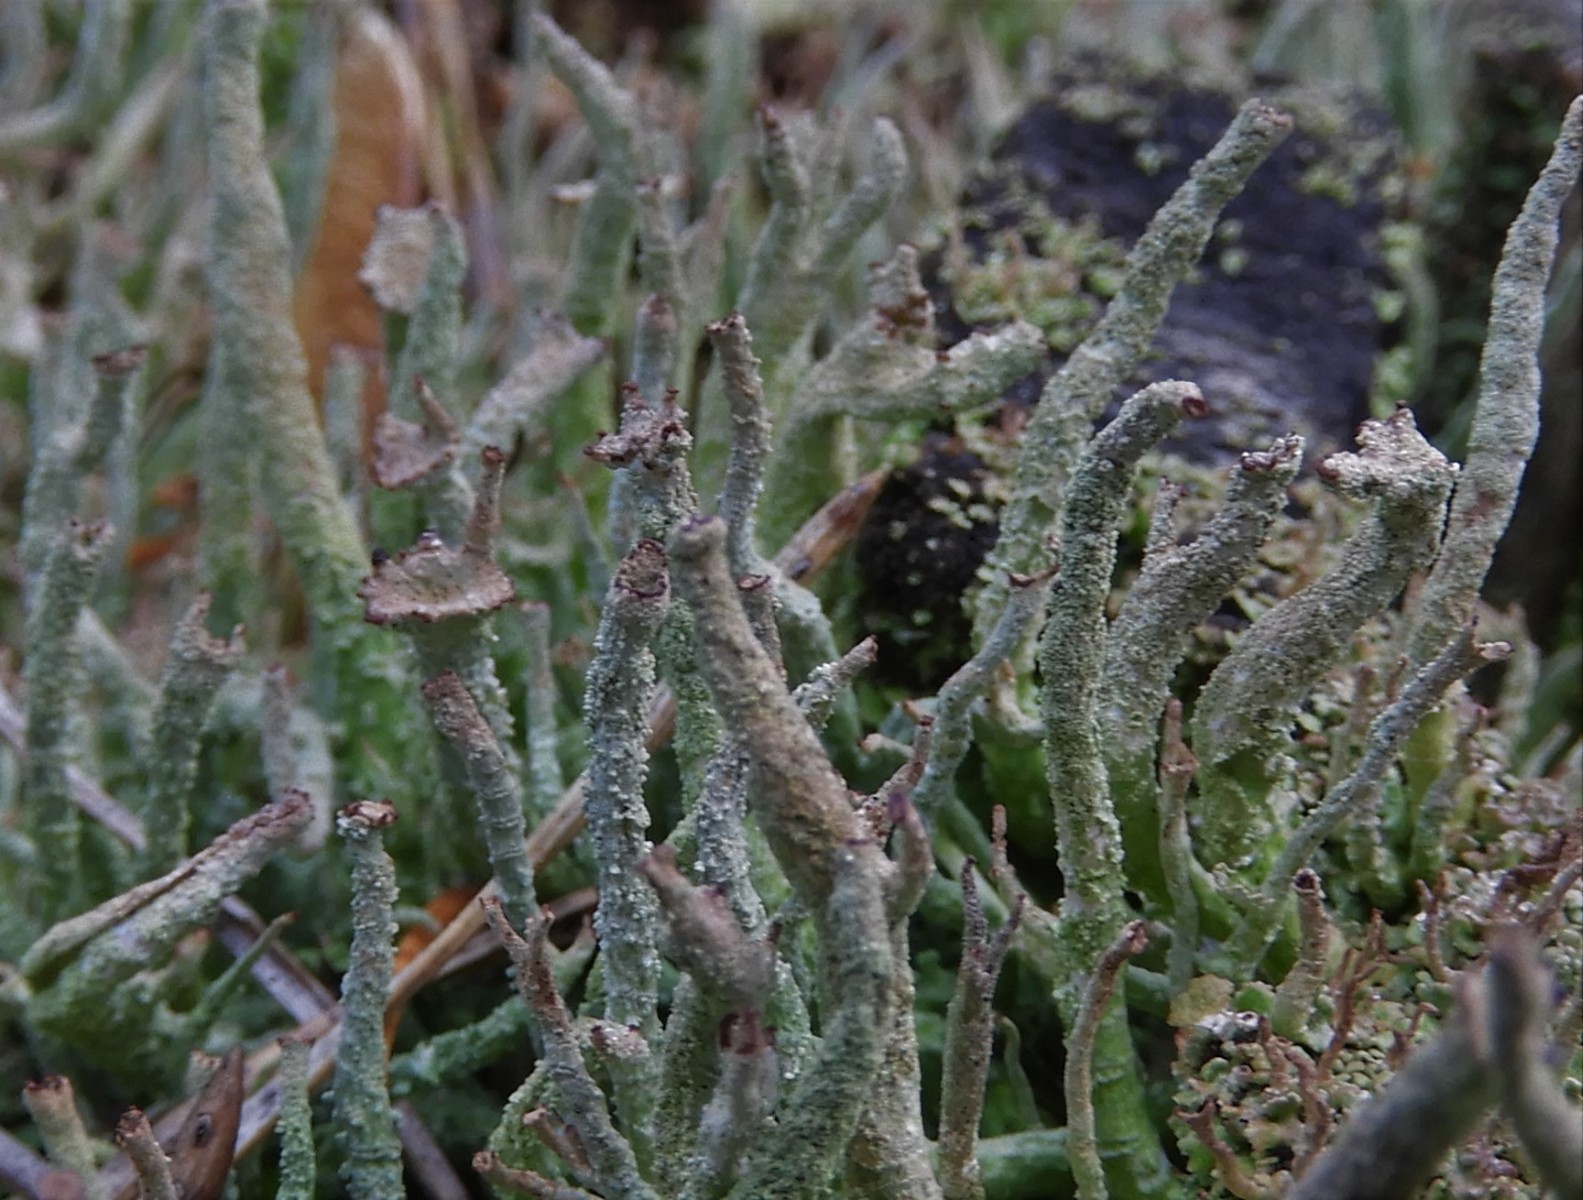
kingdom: Fungi
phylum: Ascomycota
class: Lecanoromycetes
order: Lecanorales
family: Cladoniaceae
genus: Cladonia
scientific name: Cladonia
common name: brungrøn bægerlav
